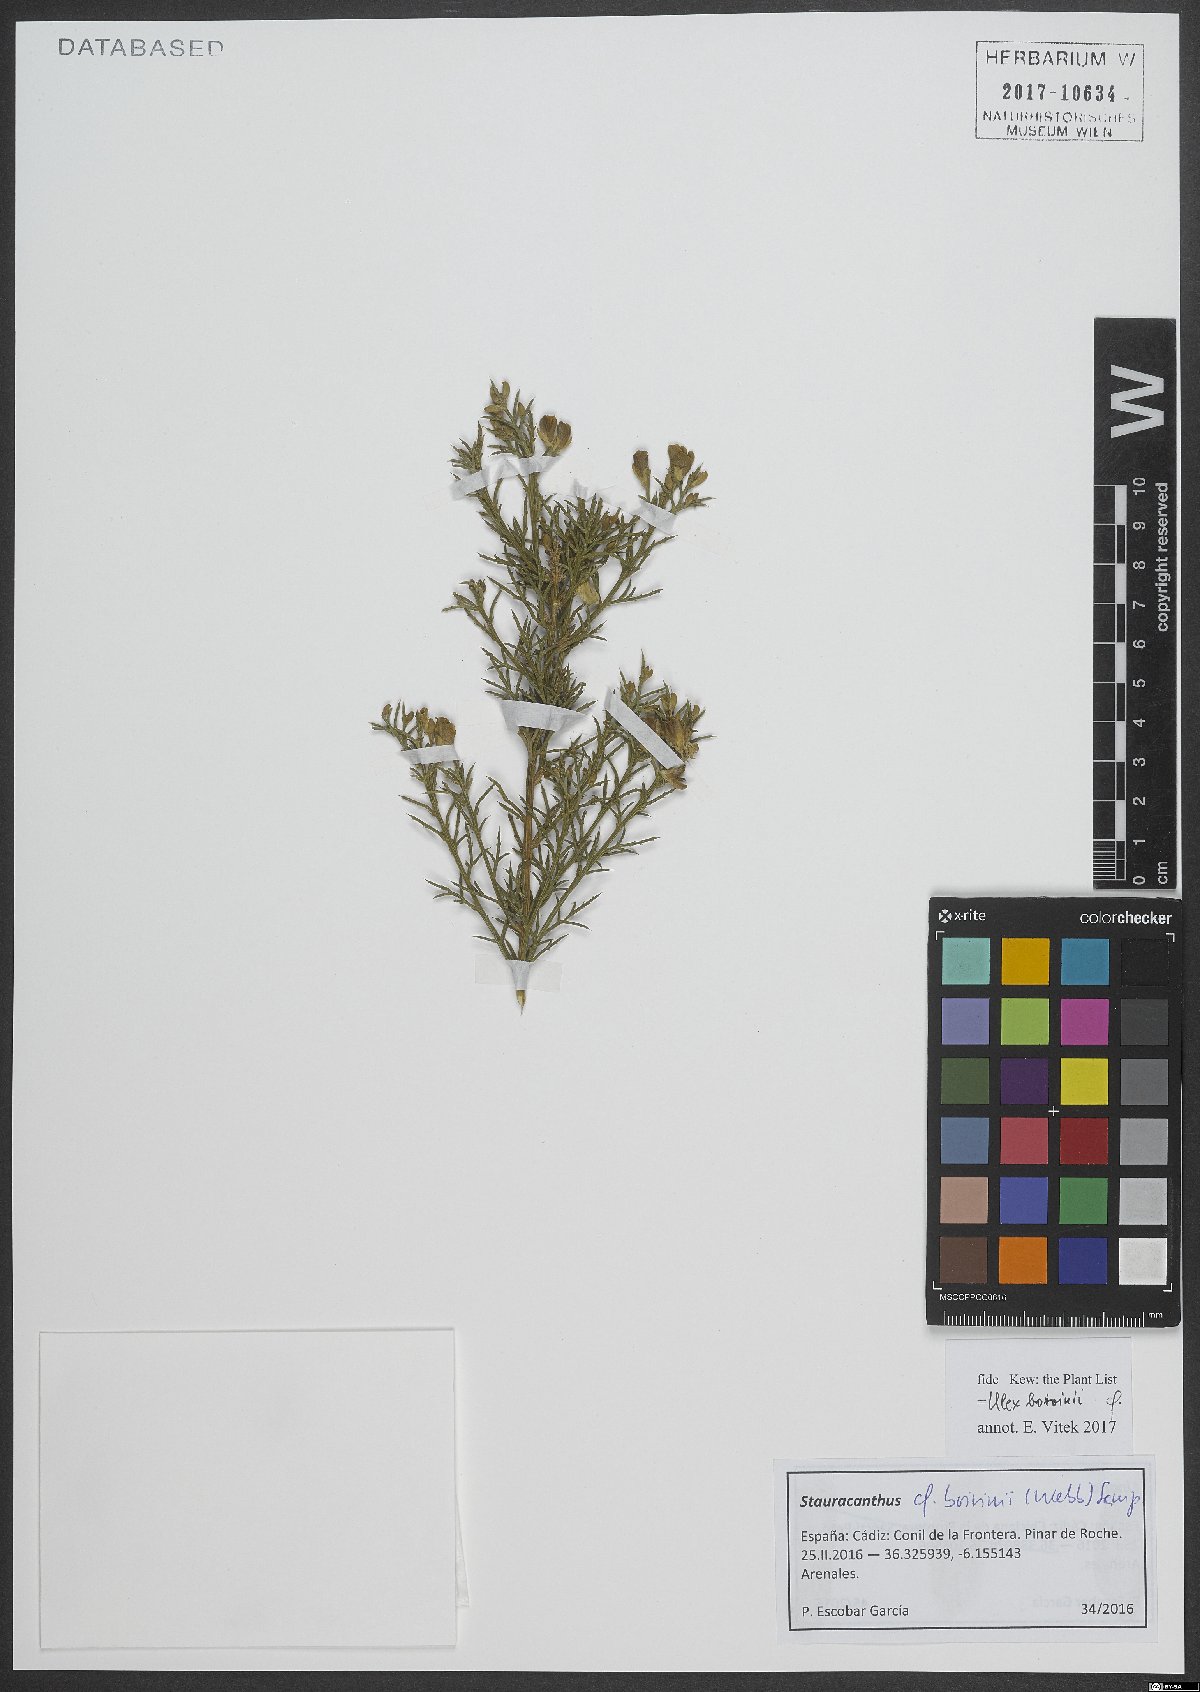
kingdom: Plantae
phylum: Tracheophyta
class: Magnoliopsida
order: Fabales
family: Fabaceae
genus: Stauracanthus
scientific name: Stauracanthus boivinii
